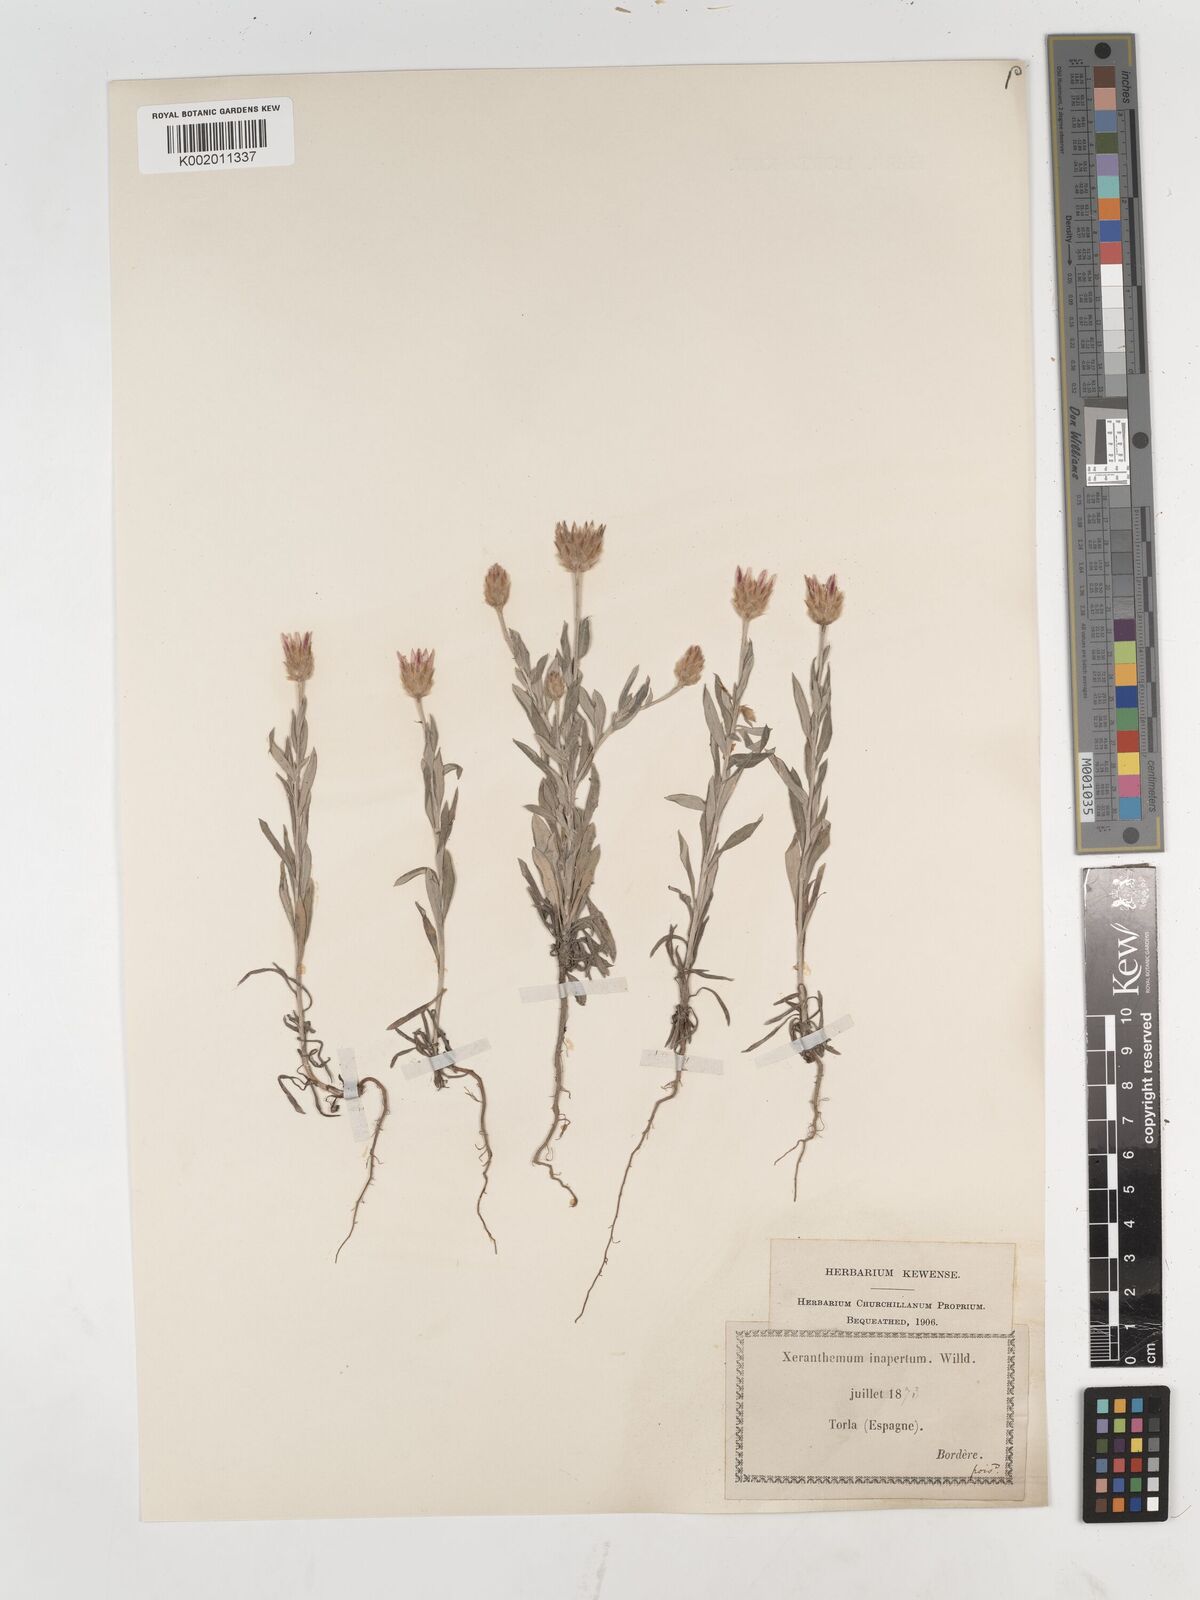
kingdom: Plantae
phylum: Tracheophyta
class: Magnoliopsida
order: Asterales
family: Asteraceae
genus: Xeranthemum
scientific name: Xeranthemum inapertum
